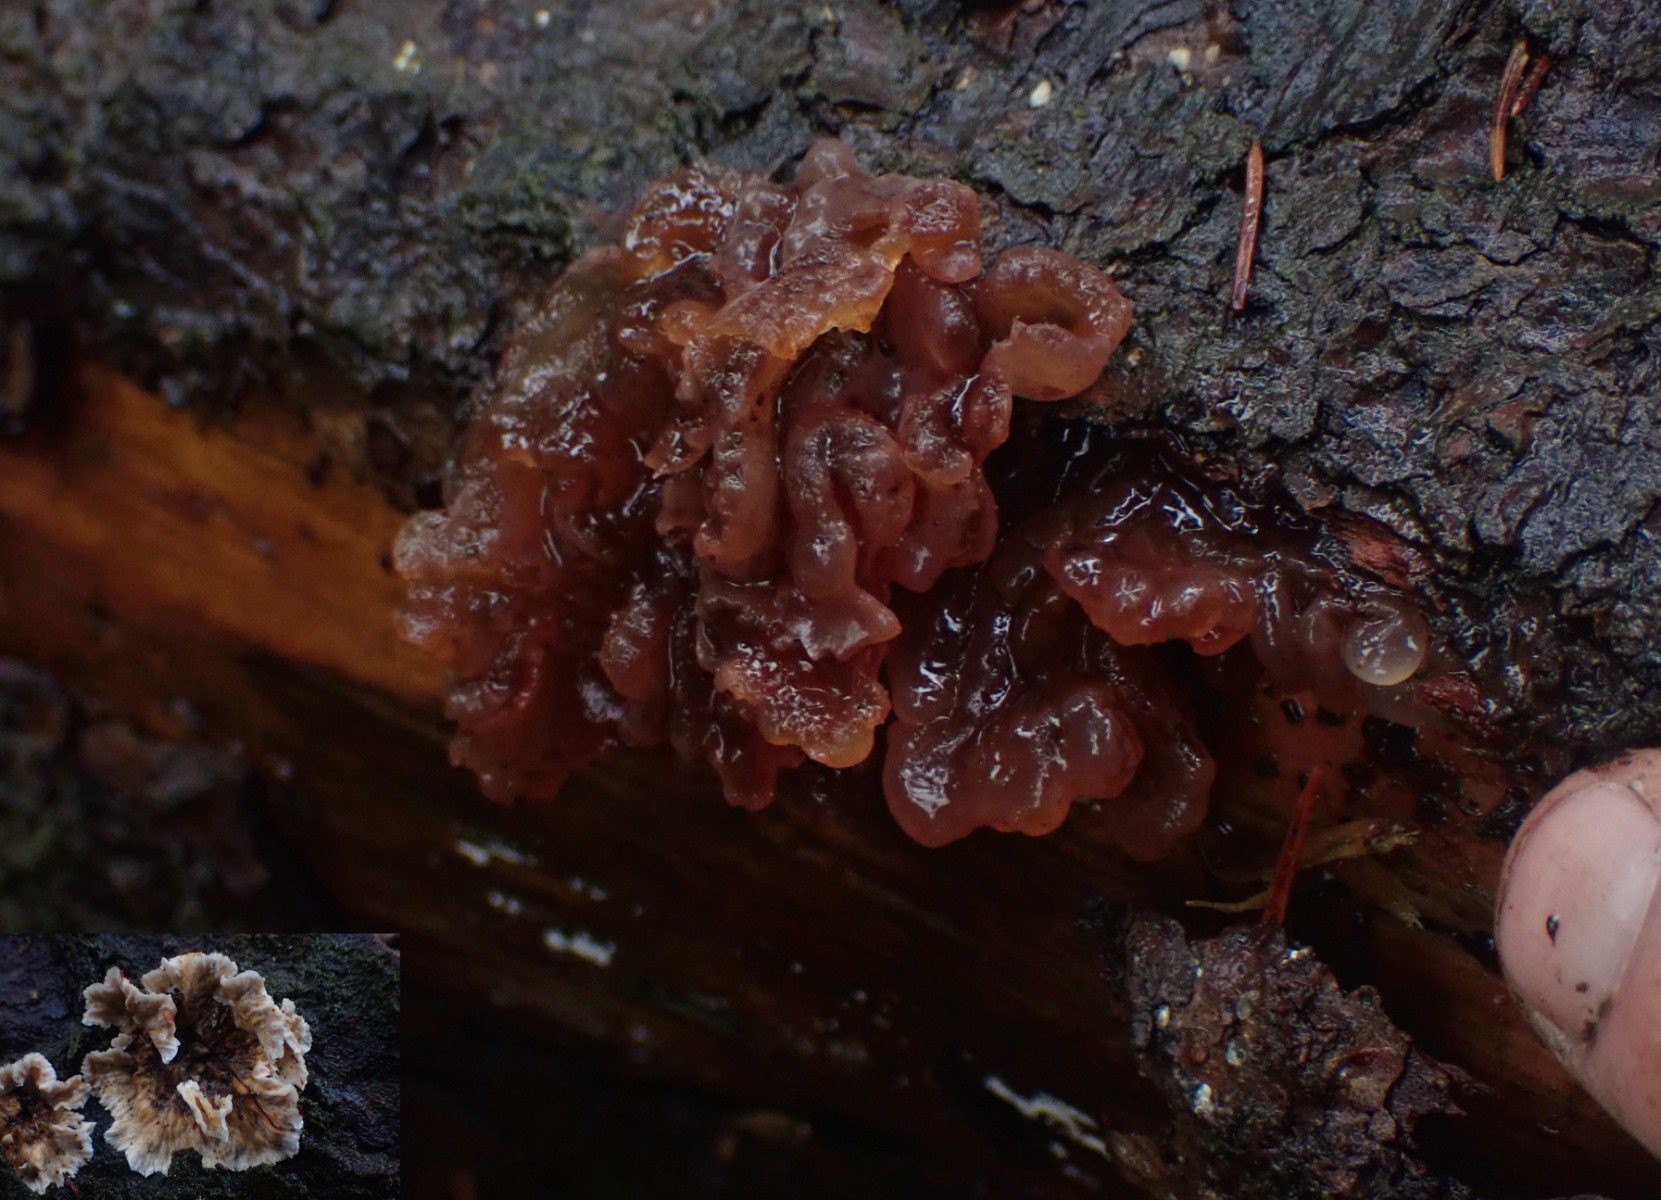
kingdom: Fungi
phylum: Basidiomycota
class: Tremellomycetes
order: Tremellales
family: Tremellaceae
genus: Phaeotremella
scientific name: Phaeotremella foliacea
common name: brun bævresvamp
